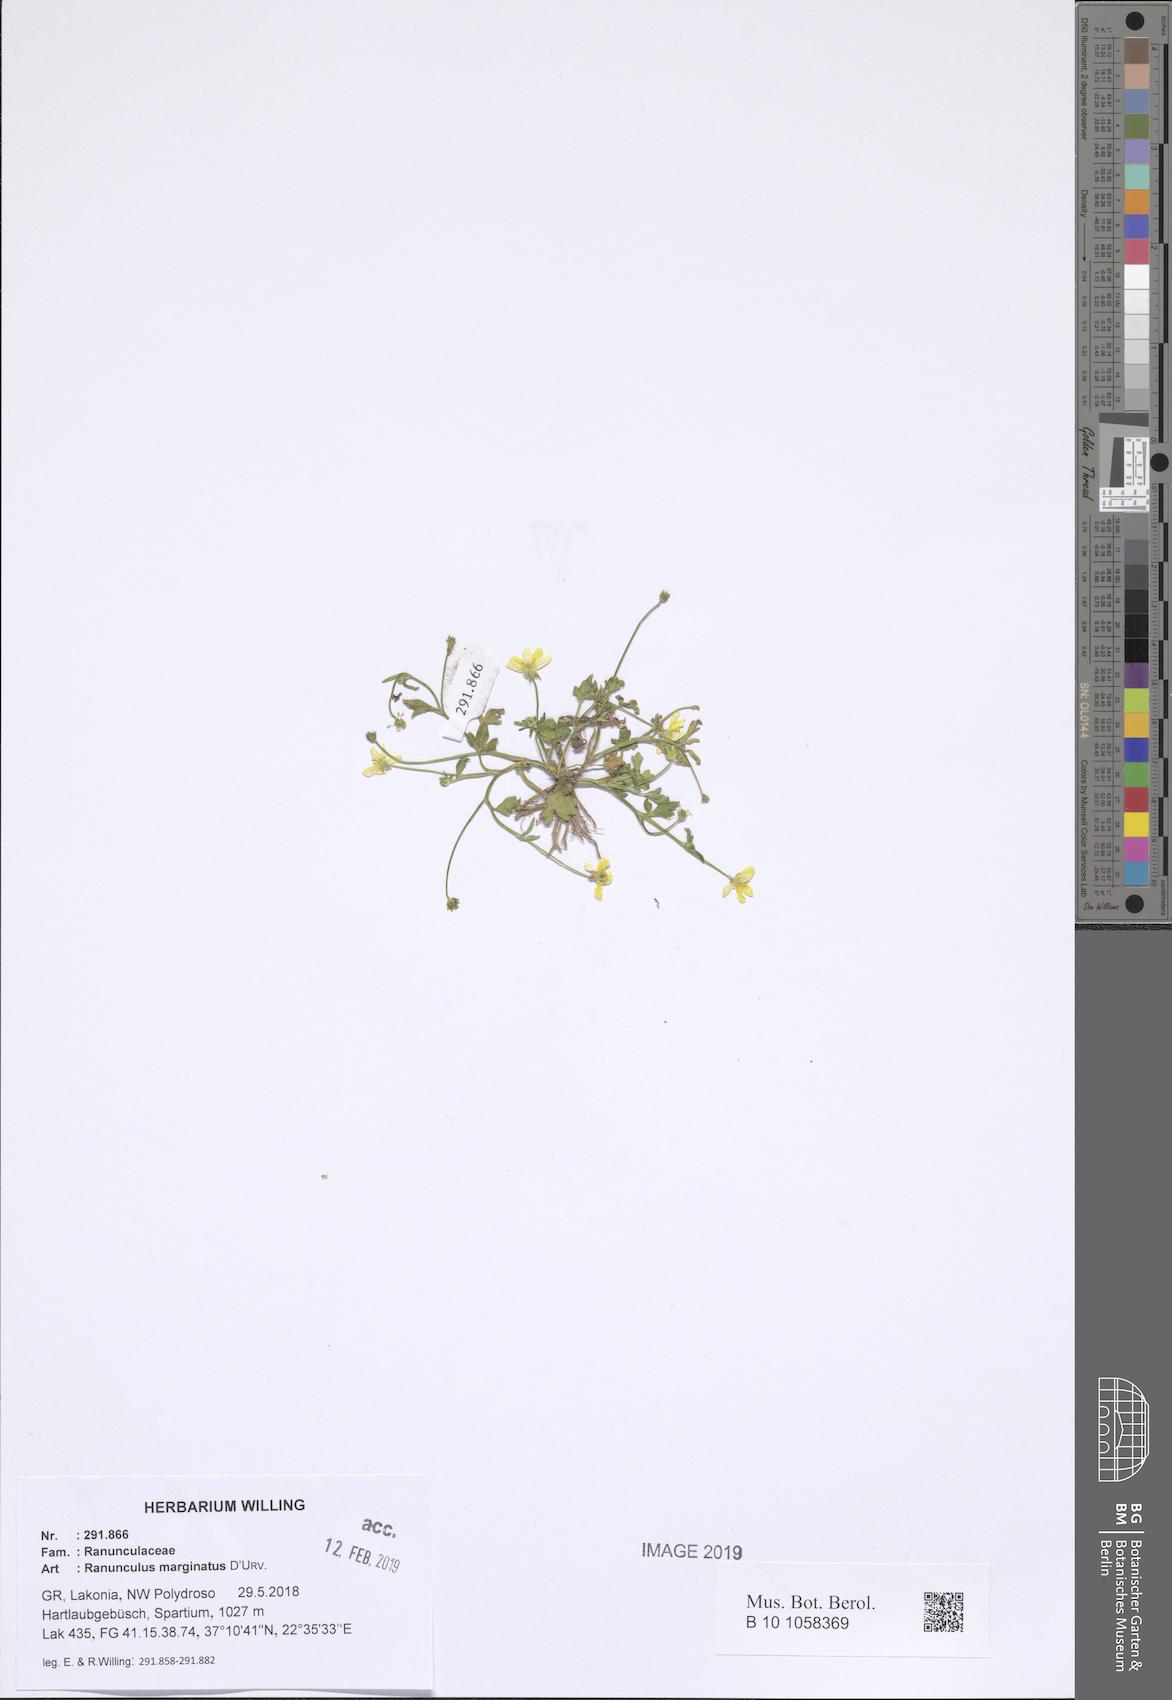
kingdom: Plantae
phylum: Tracheophyta
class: Magnoliopsida
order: Ranunculales
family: Ranunculaceae
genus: Ranunculus
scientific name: Ranunculus marginatus
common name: St. martin's buttercup
